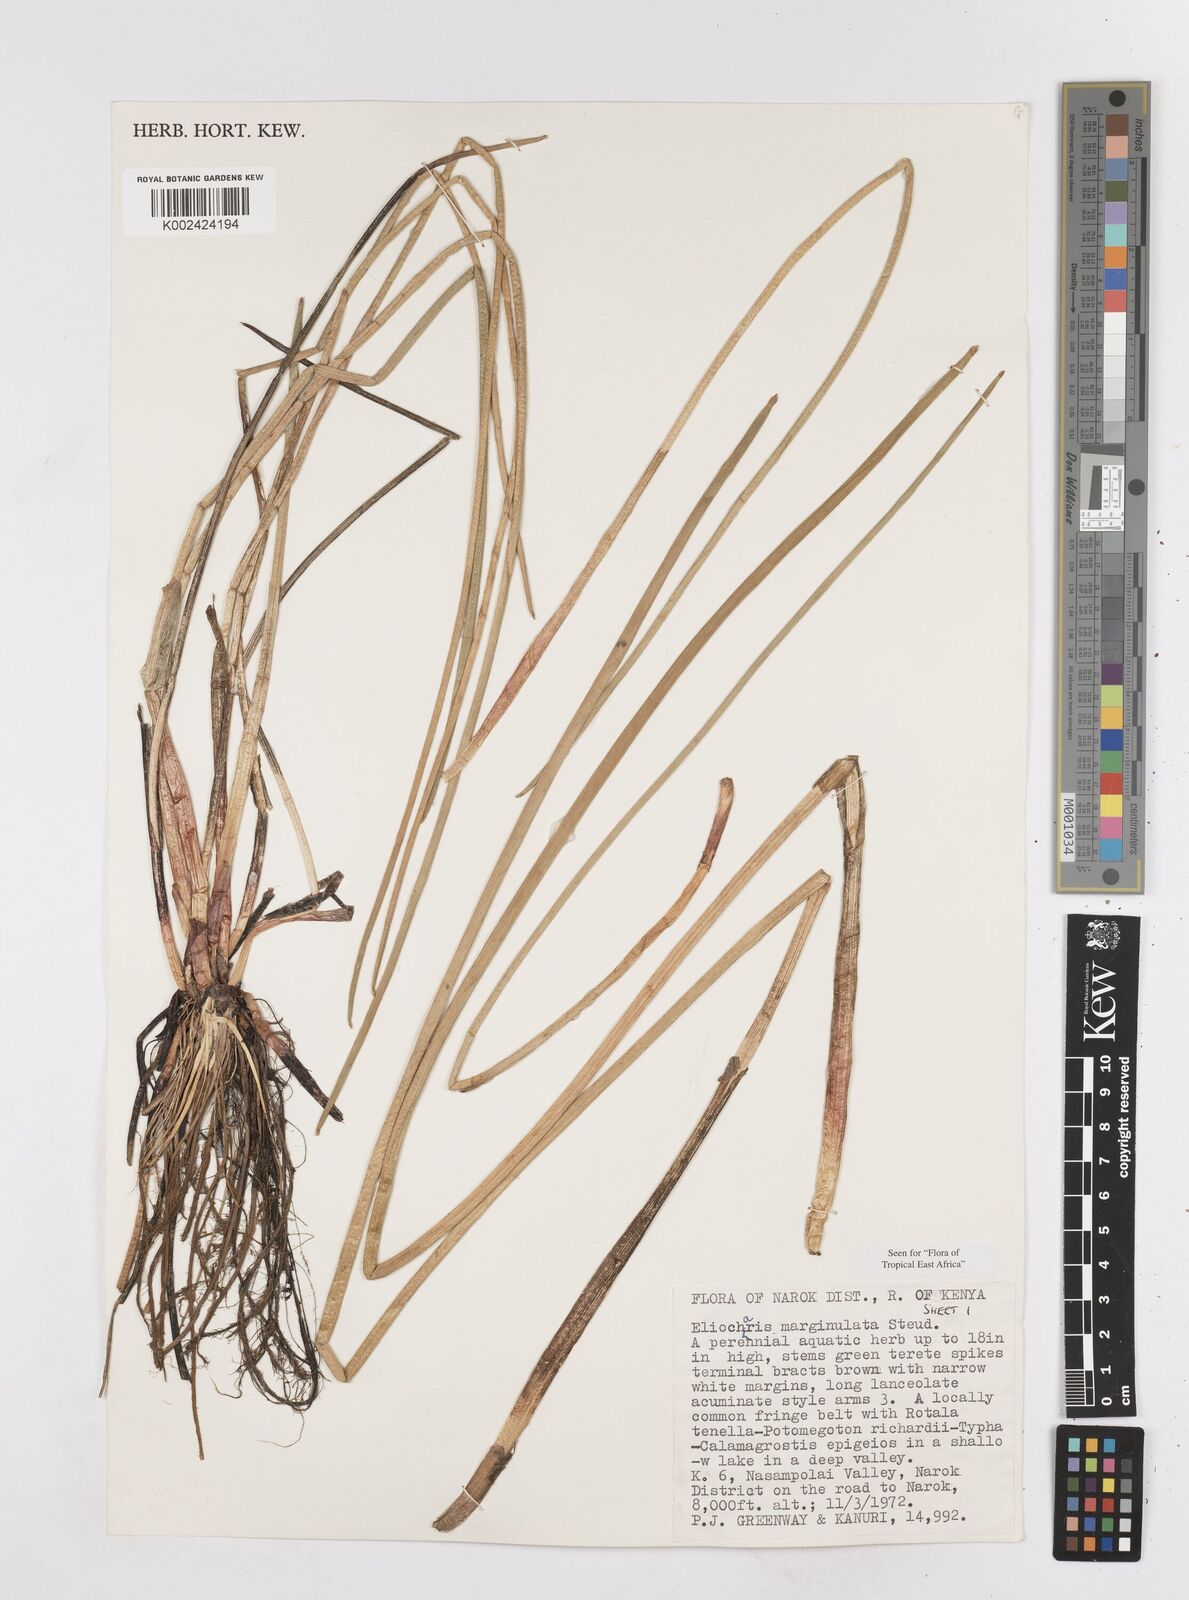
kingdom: Plantae
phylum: Tracheophyta
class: Liliopsida
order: Poales
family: Cyperaceae
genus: Eleocharis
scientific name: Eleocharis marginulata
